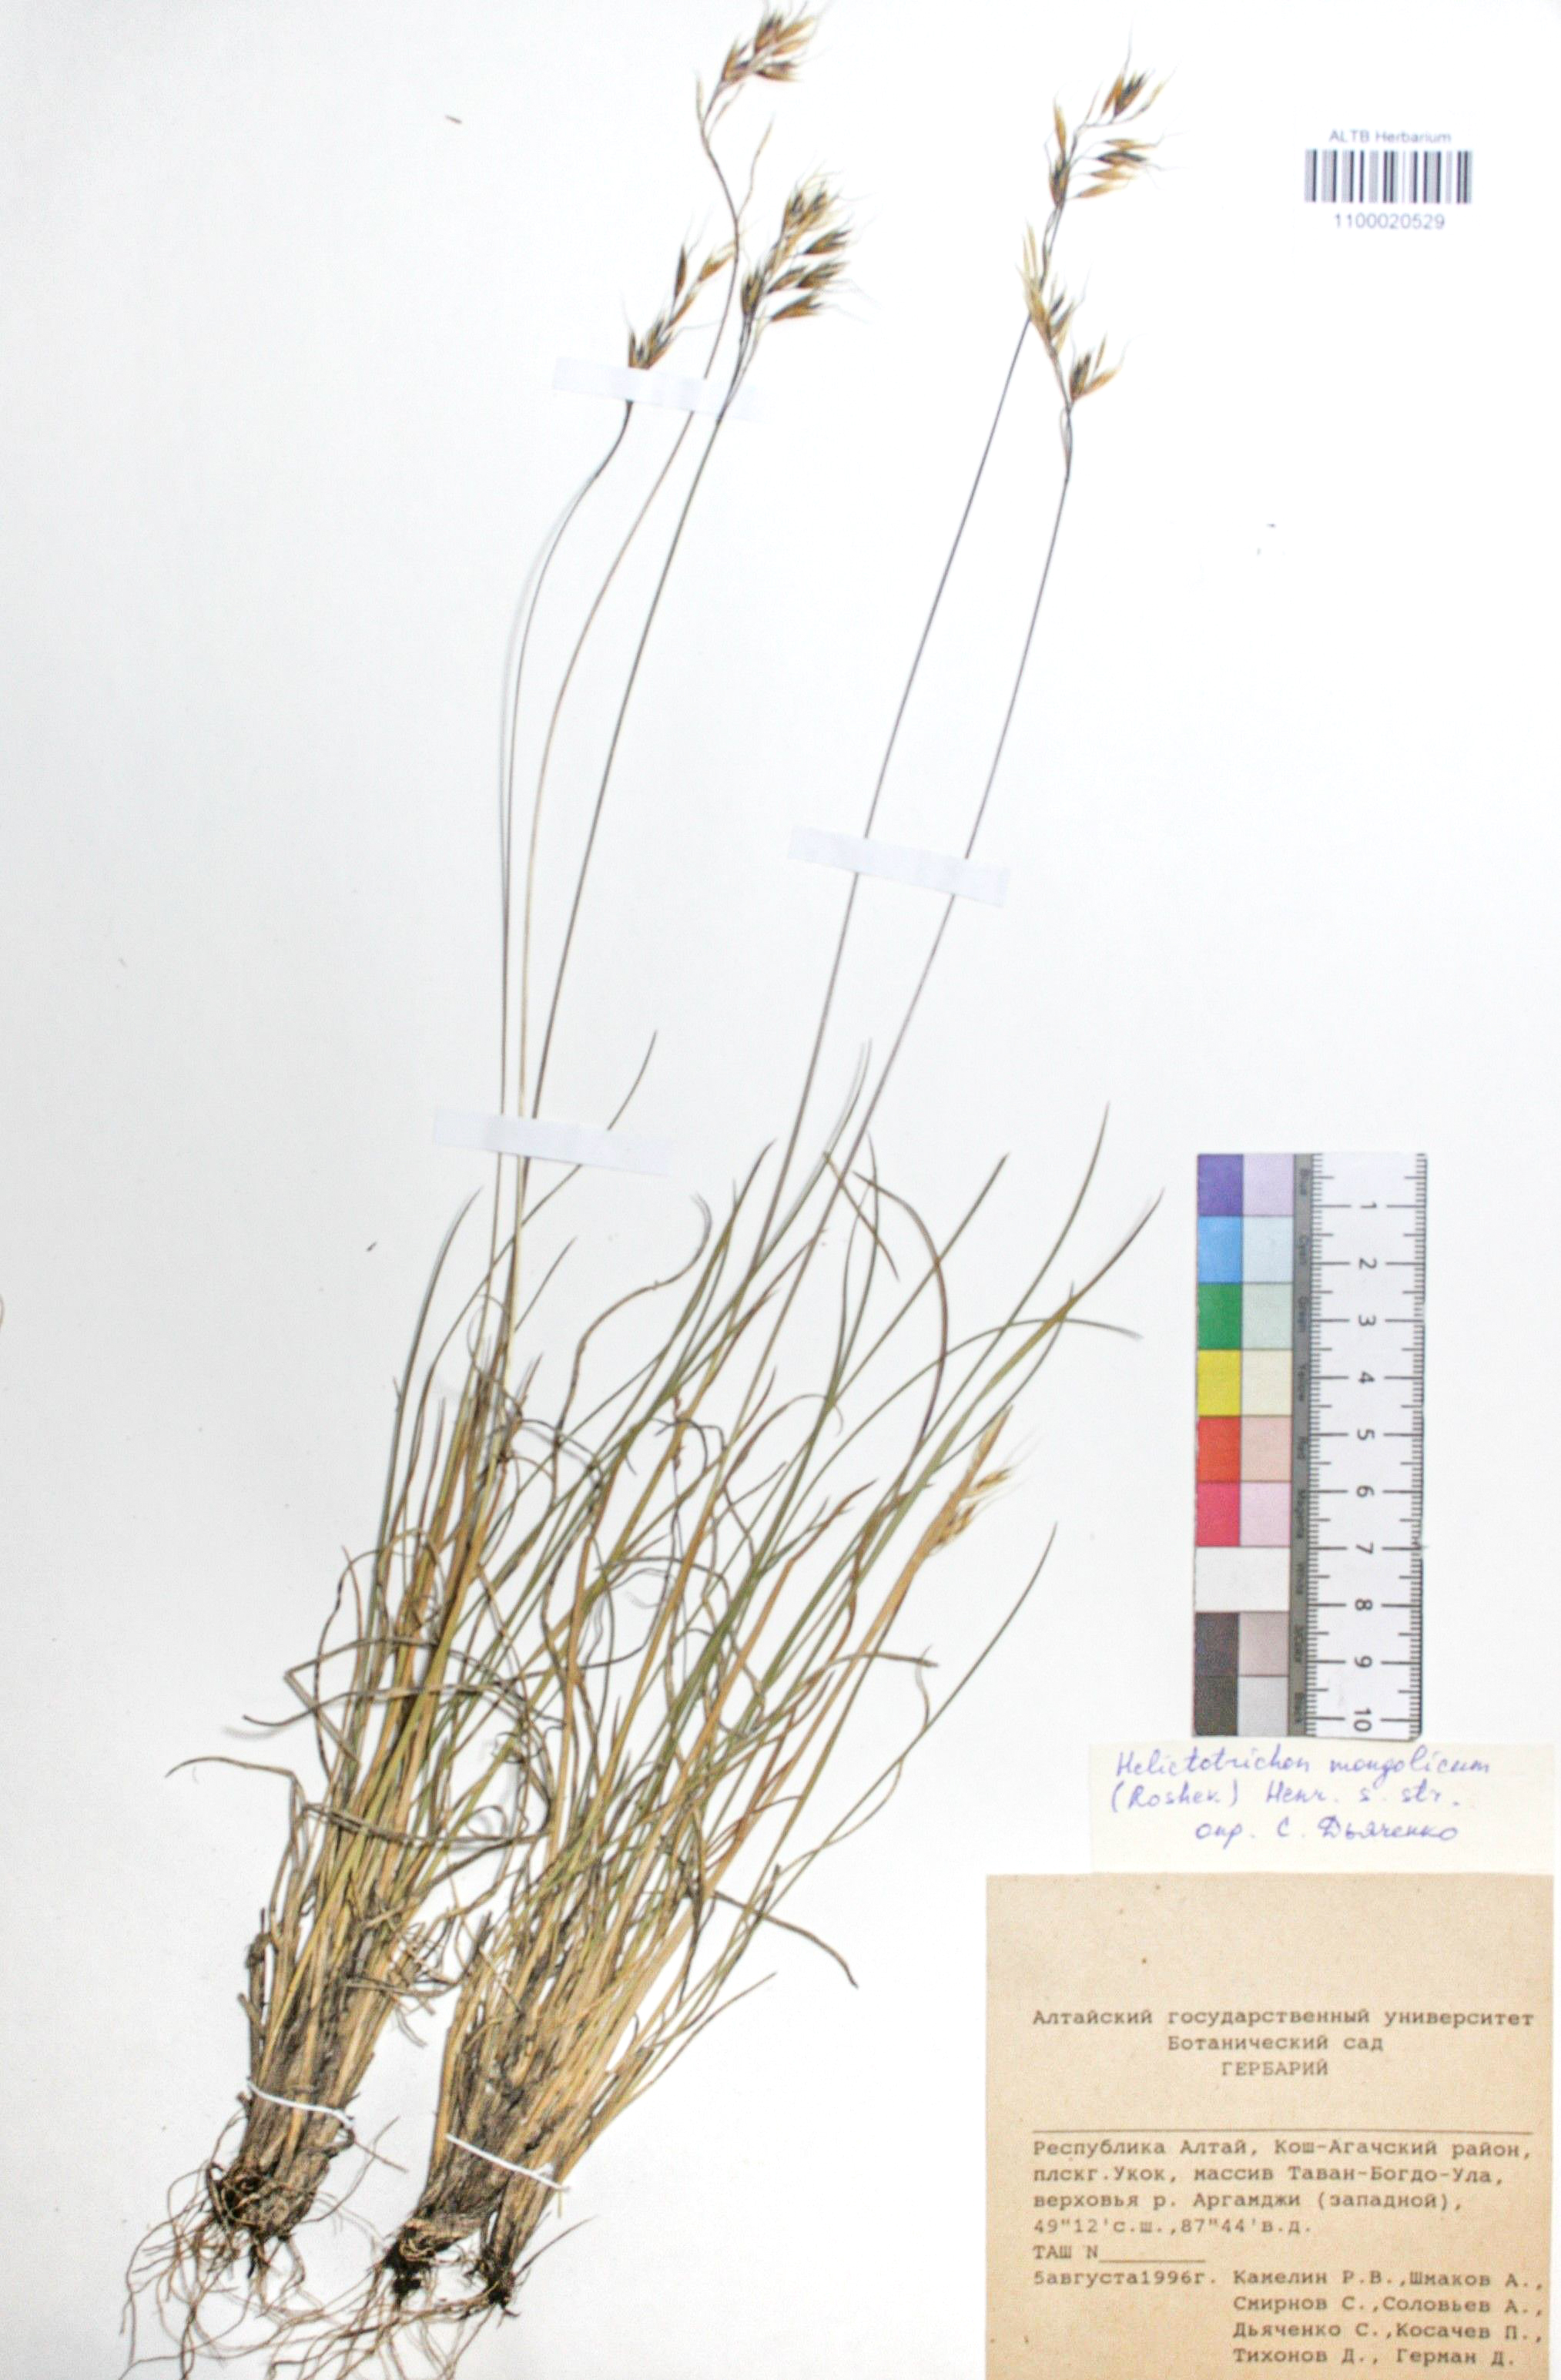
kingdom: Plantae
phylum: Tracheophyta
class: Liliopsida
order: Poales
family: Poaceae
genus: Helictotrichon
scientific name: Helictotrichon mongolicum
